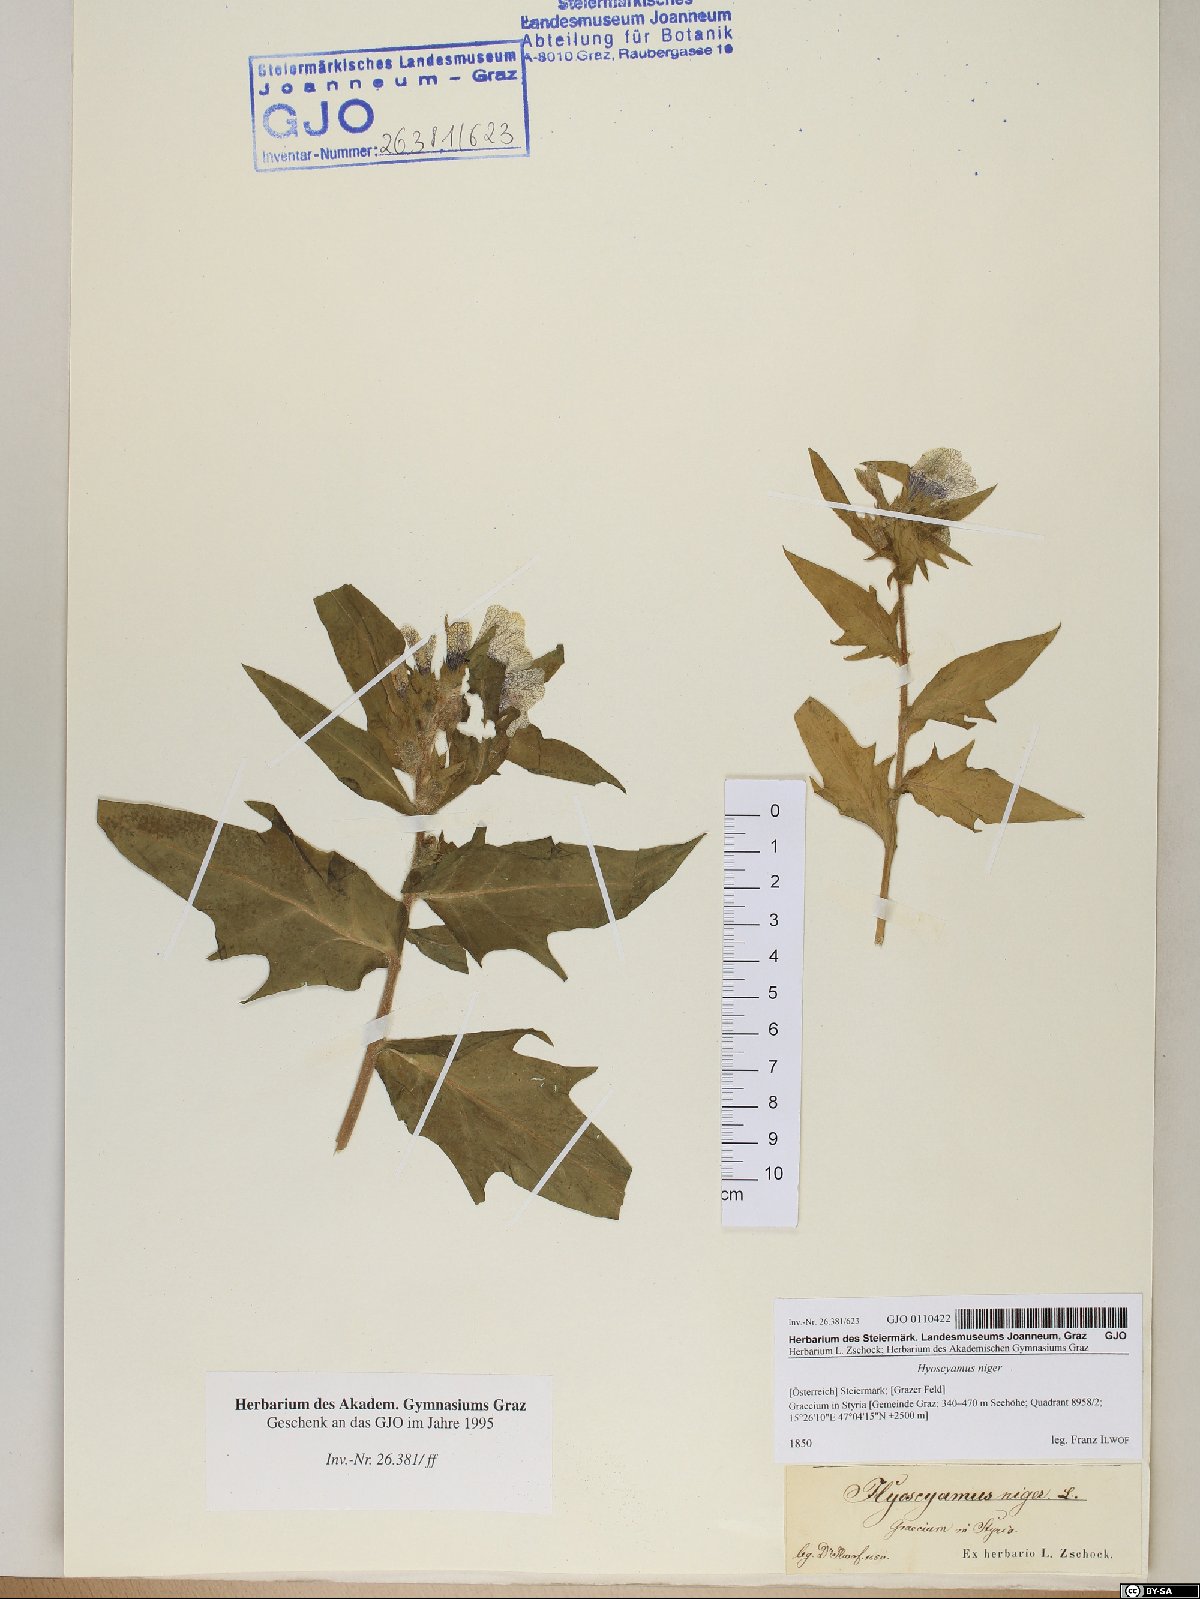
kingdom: Plantae
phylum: Tracheophyta
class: Magnoliopsida
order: Solanales
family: Solanaceae
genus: Hyoscyamus
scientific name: Hyoscyamus niger
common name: Henbane
